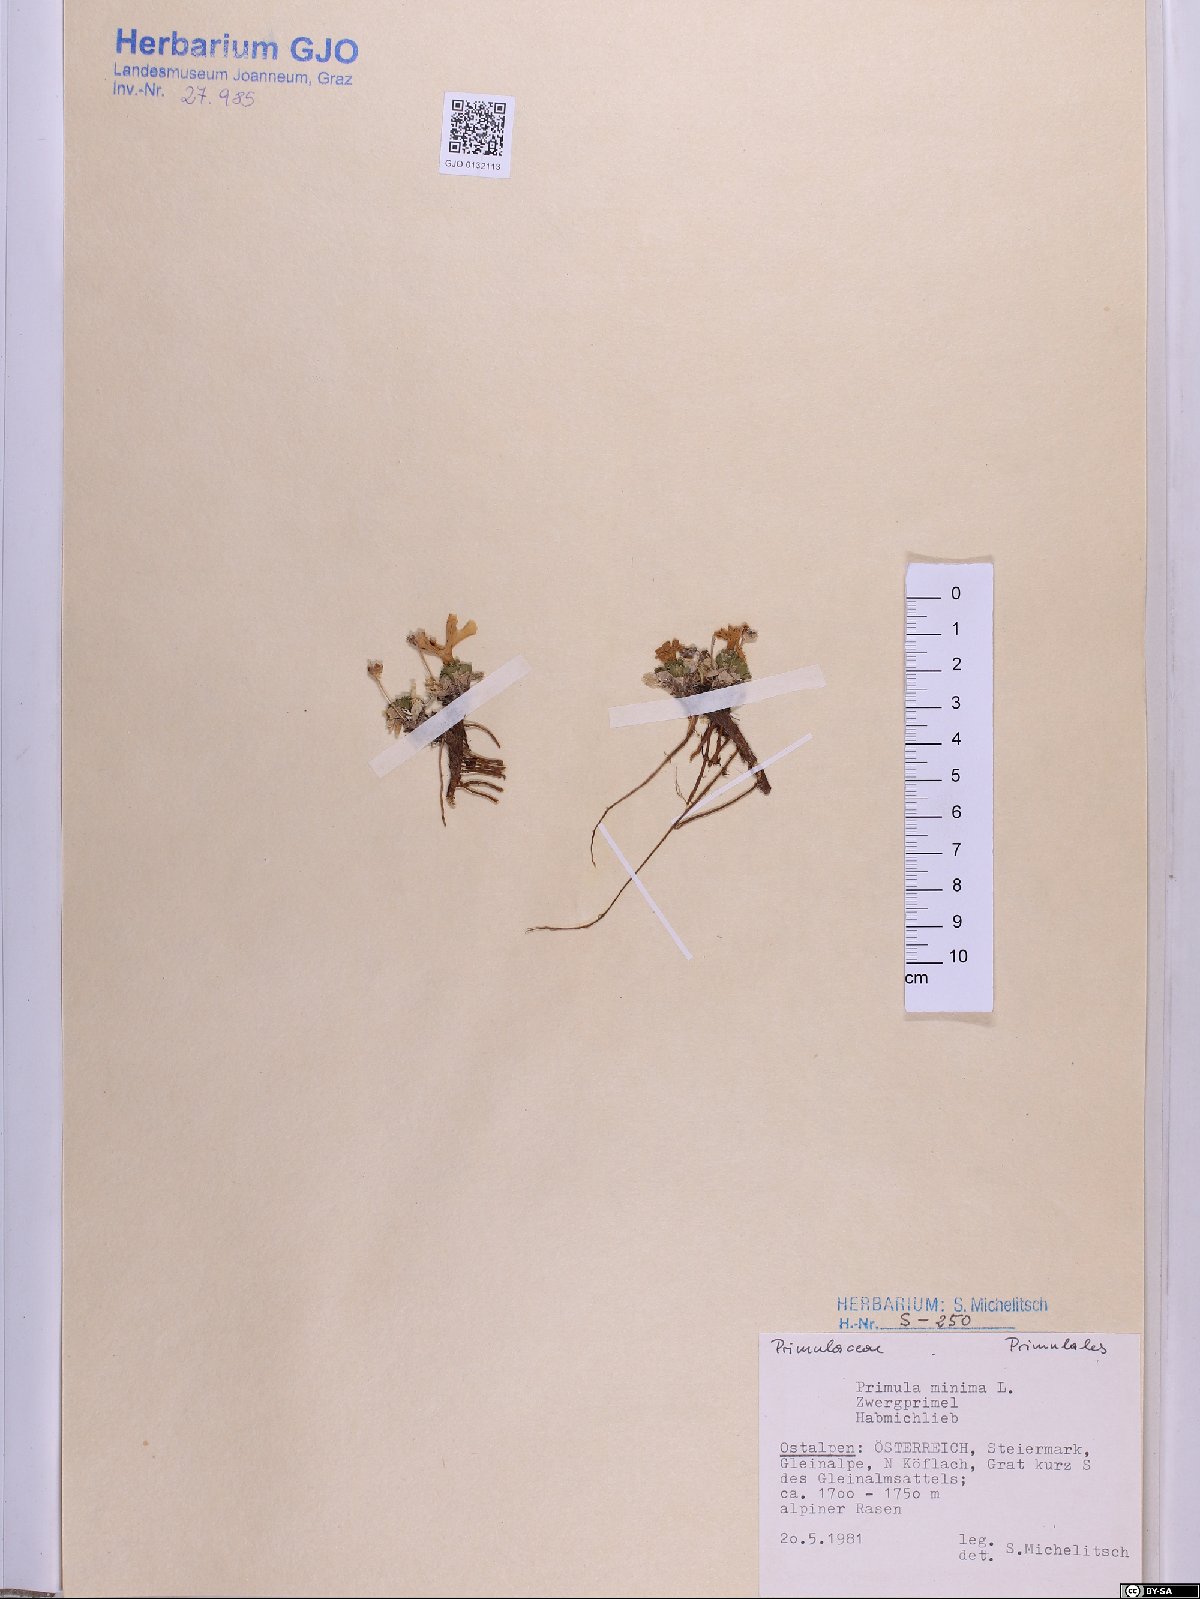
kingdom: Plantae
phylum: Tracheophyta
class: Magnoliopsida
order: Ericales
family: Primulaceae
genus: Primula
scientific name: Primula minima
